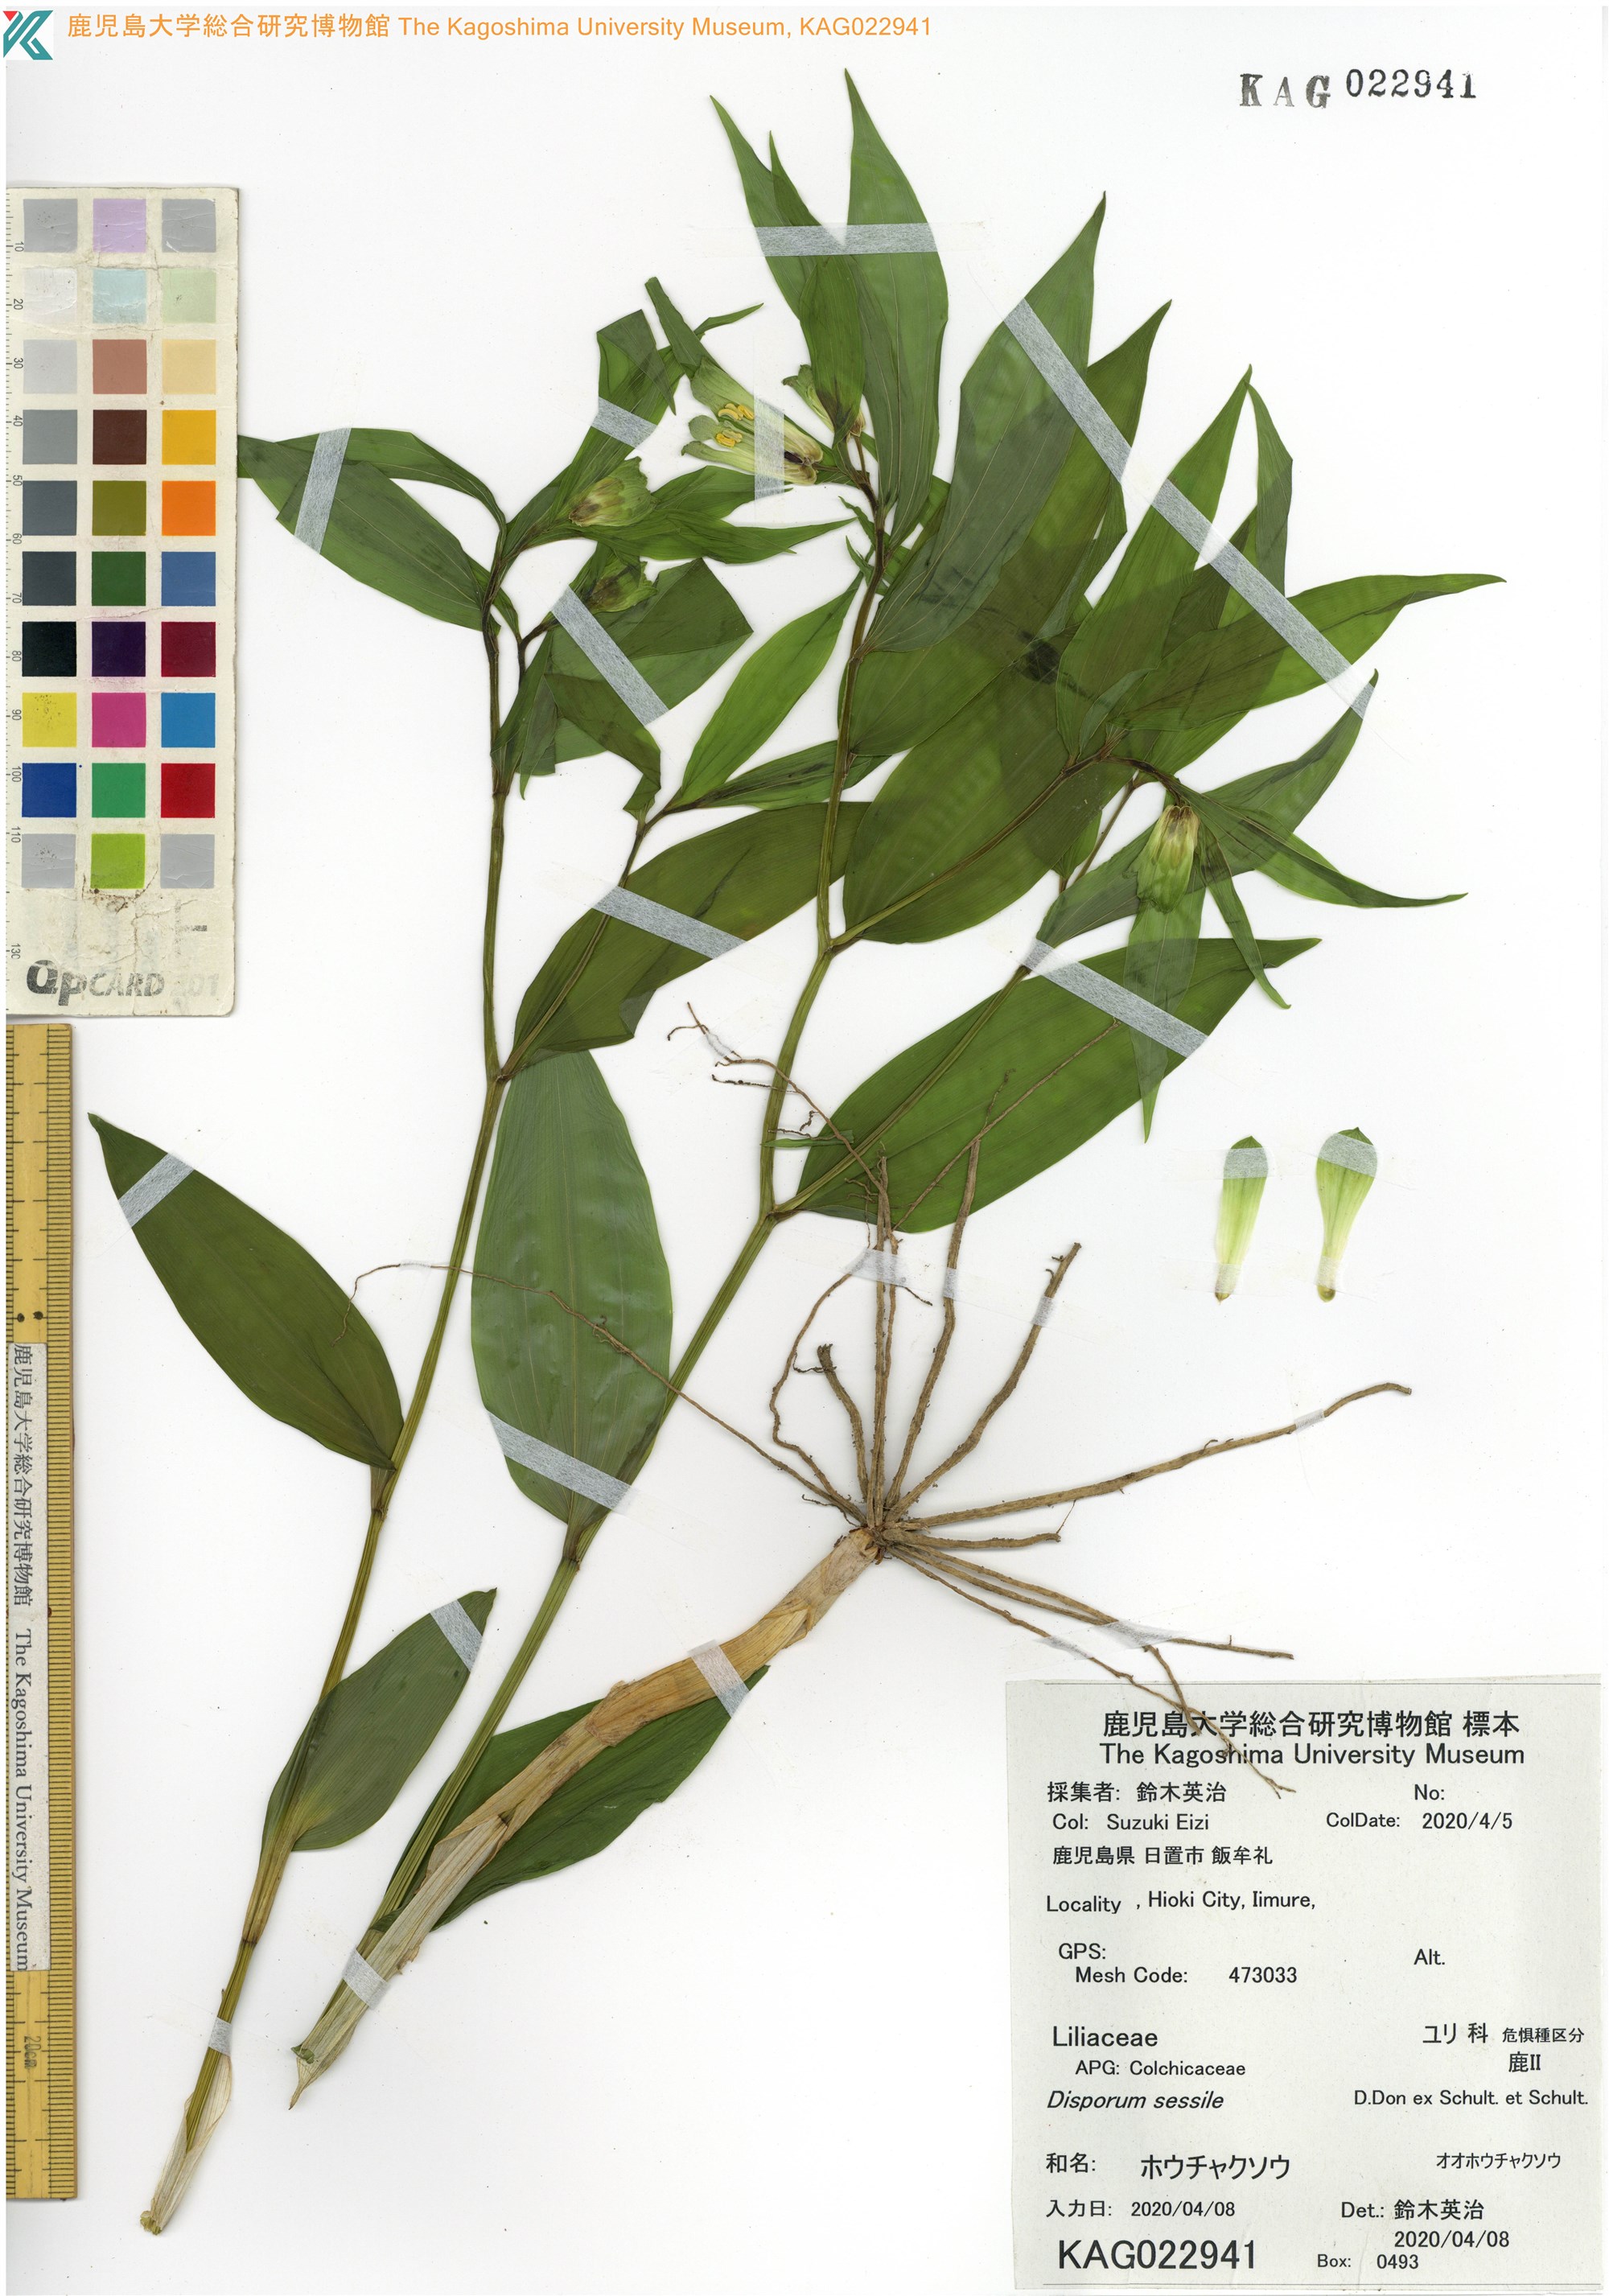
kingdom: Plantae
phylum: Tracheophyta
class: Liliopsida
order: Liliales
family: Colchicaceae
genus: Disporum
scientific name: Disporum sessile
